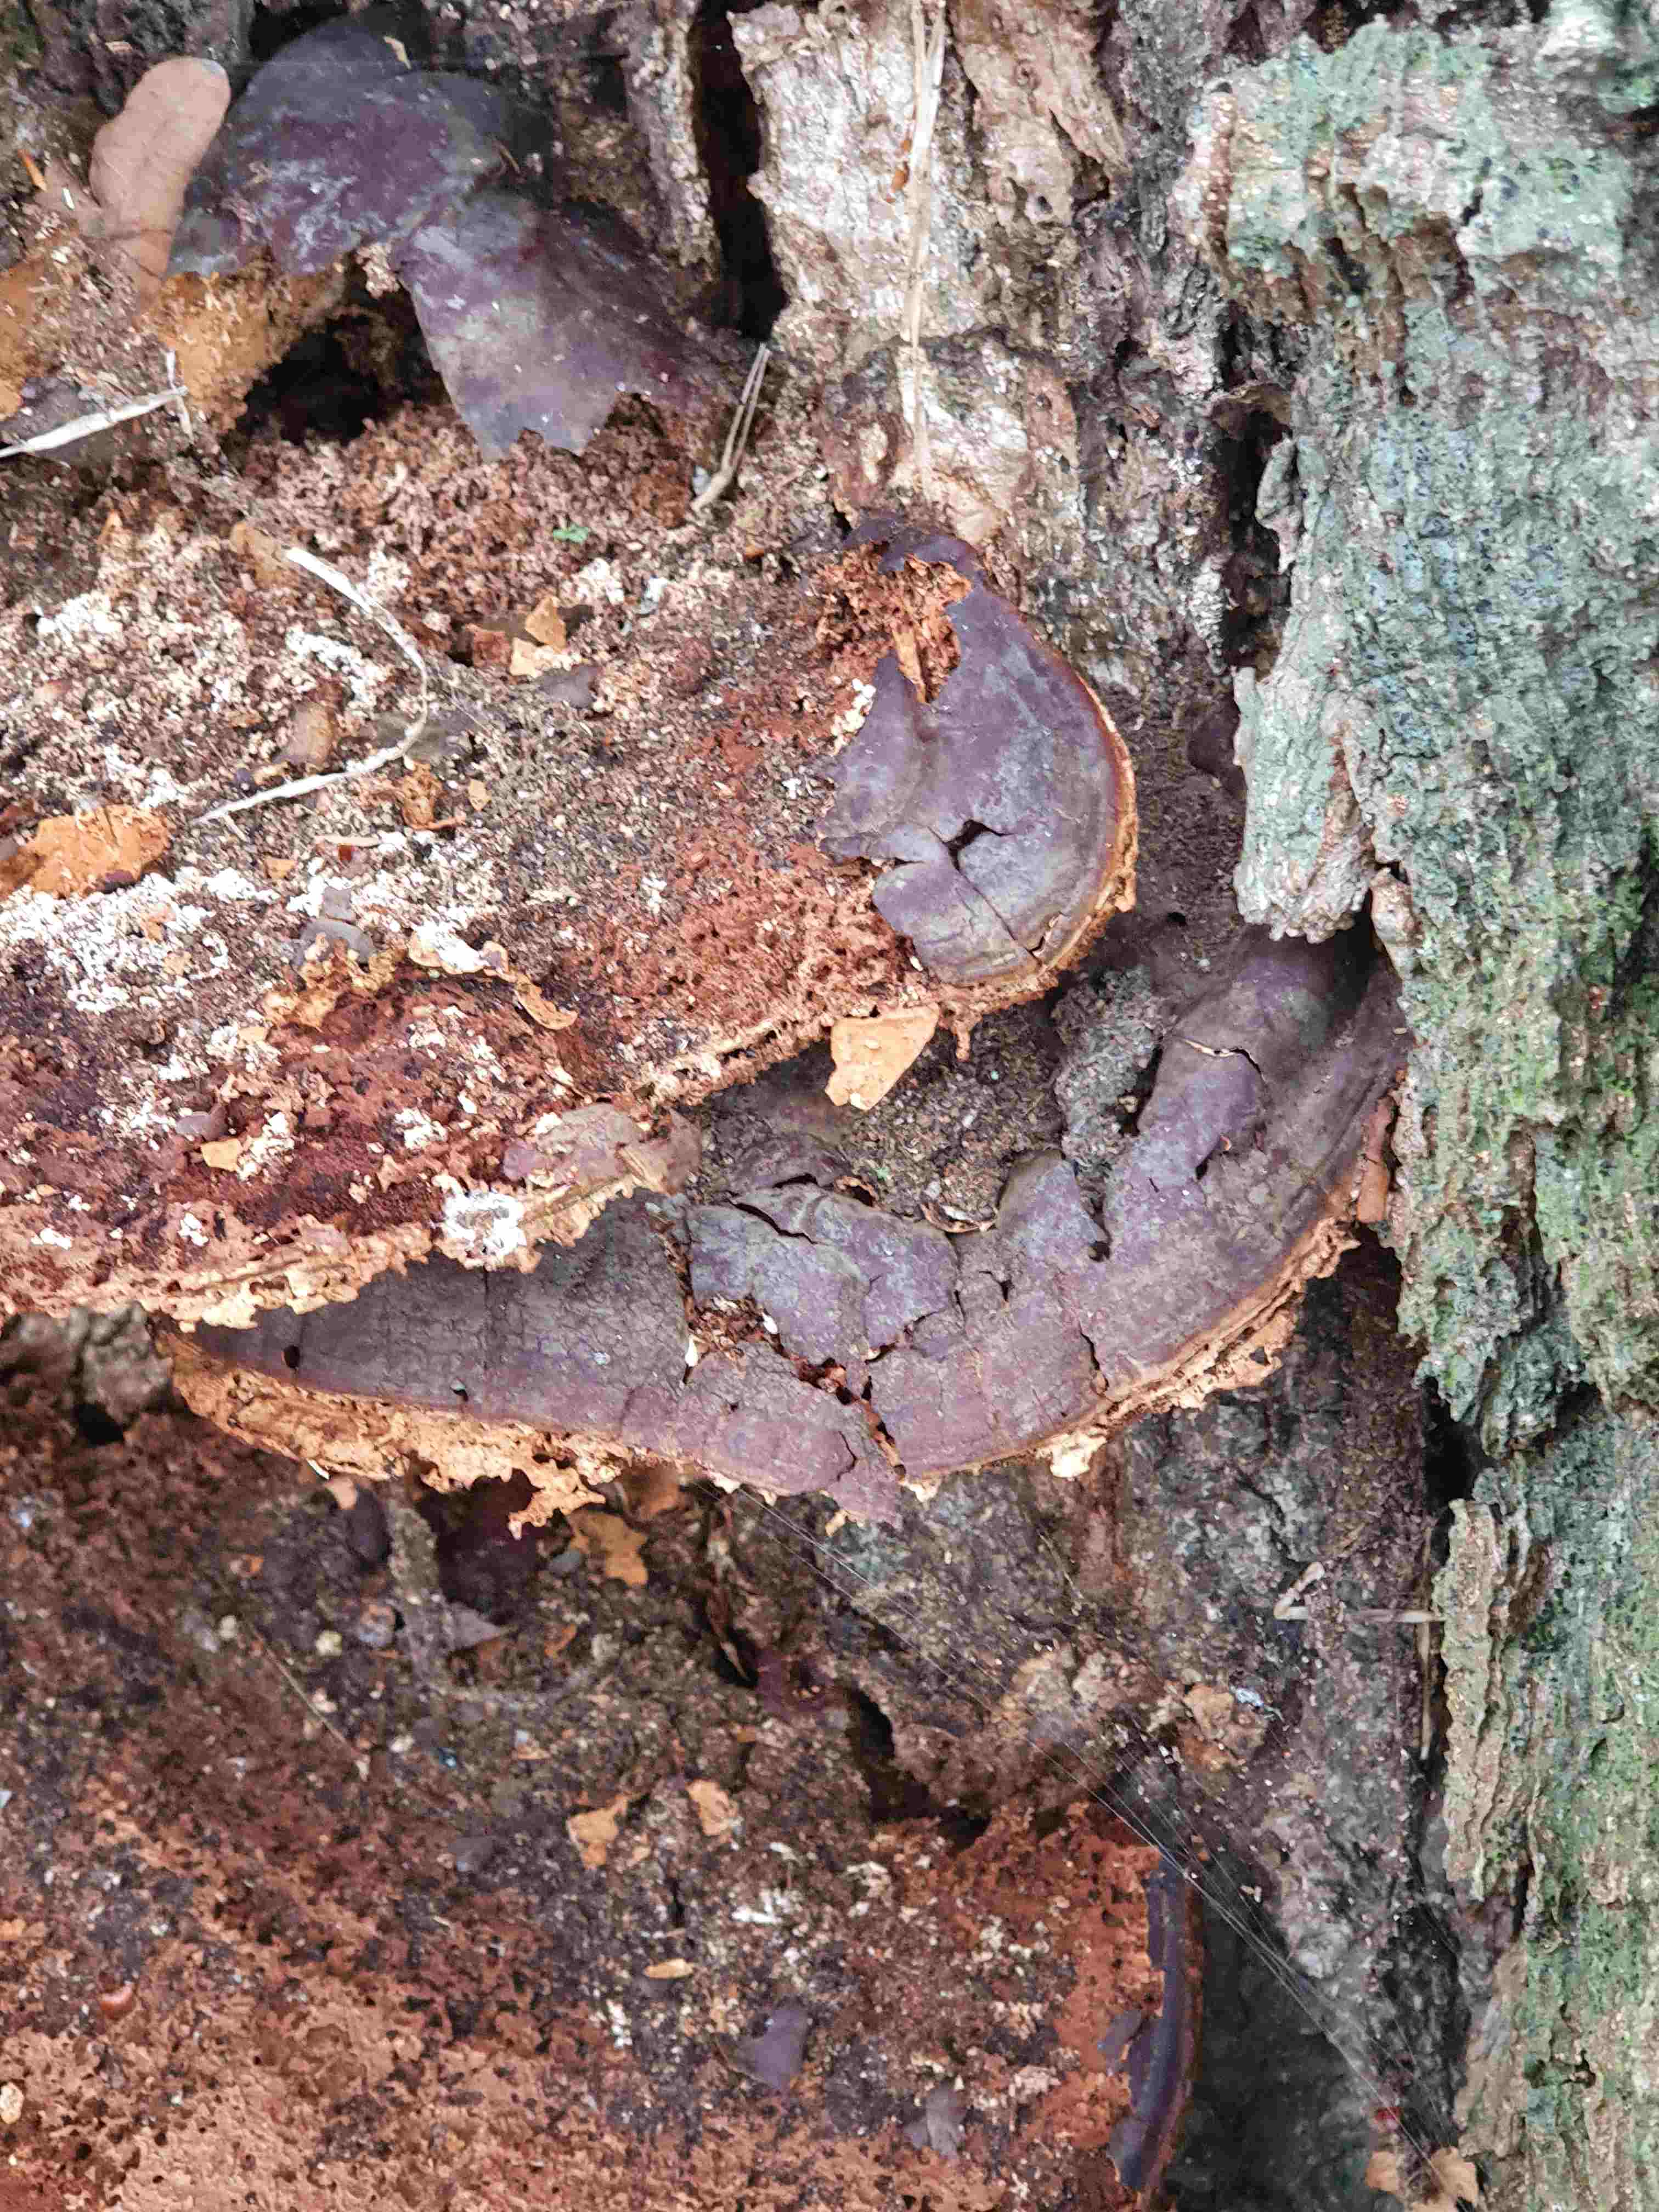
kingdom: Fungi
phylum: Basidiomycota
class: Agaricomycetes
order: Polyporales
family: Polyporaceae
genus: Ganoderma
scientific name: Ganoderma resinaceum
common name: gyldenbrun lakporesvamp
